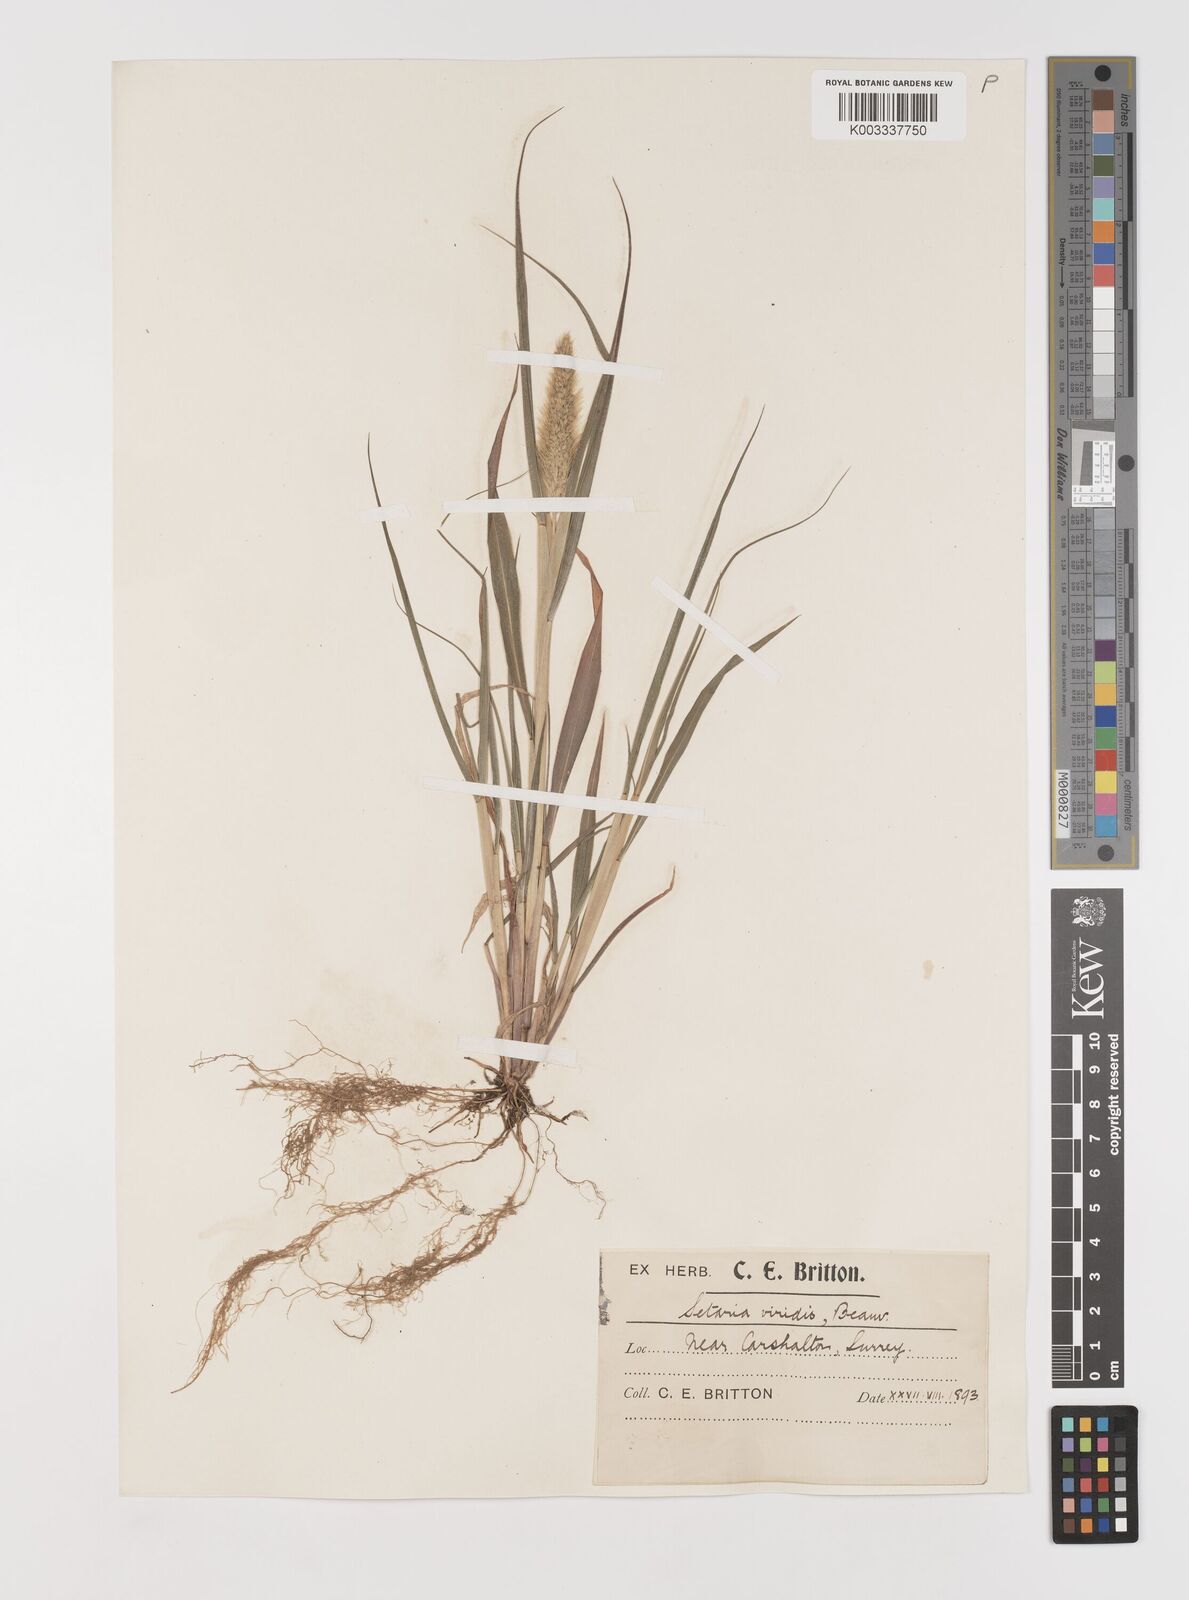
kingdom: Plantae
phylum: Tracheophyta
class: Liliopsida
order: Poales
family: Poaceae
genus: Setaria
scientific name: Setaria viridis
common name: Green bristlegrass
